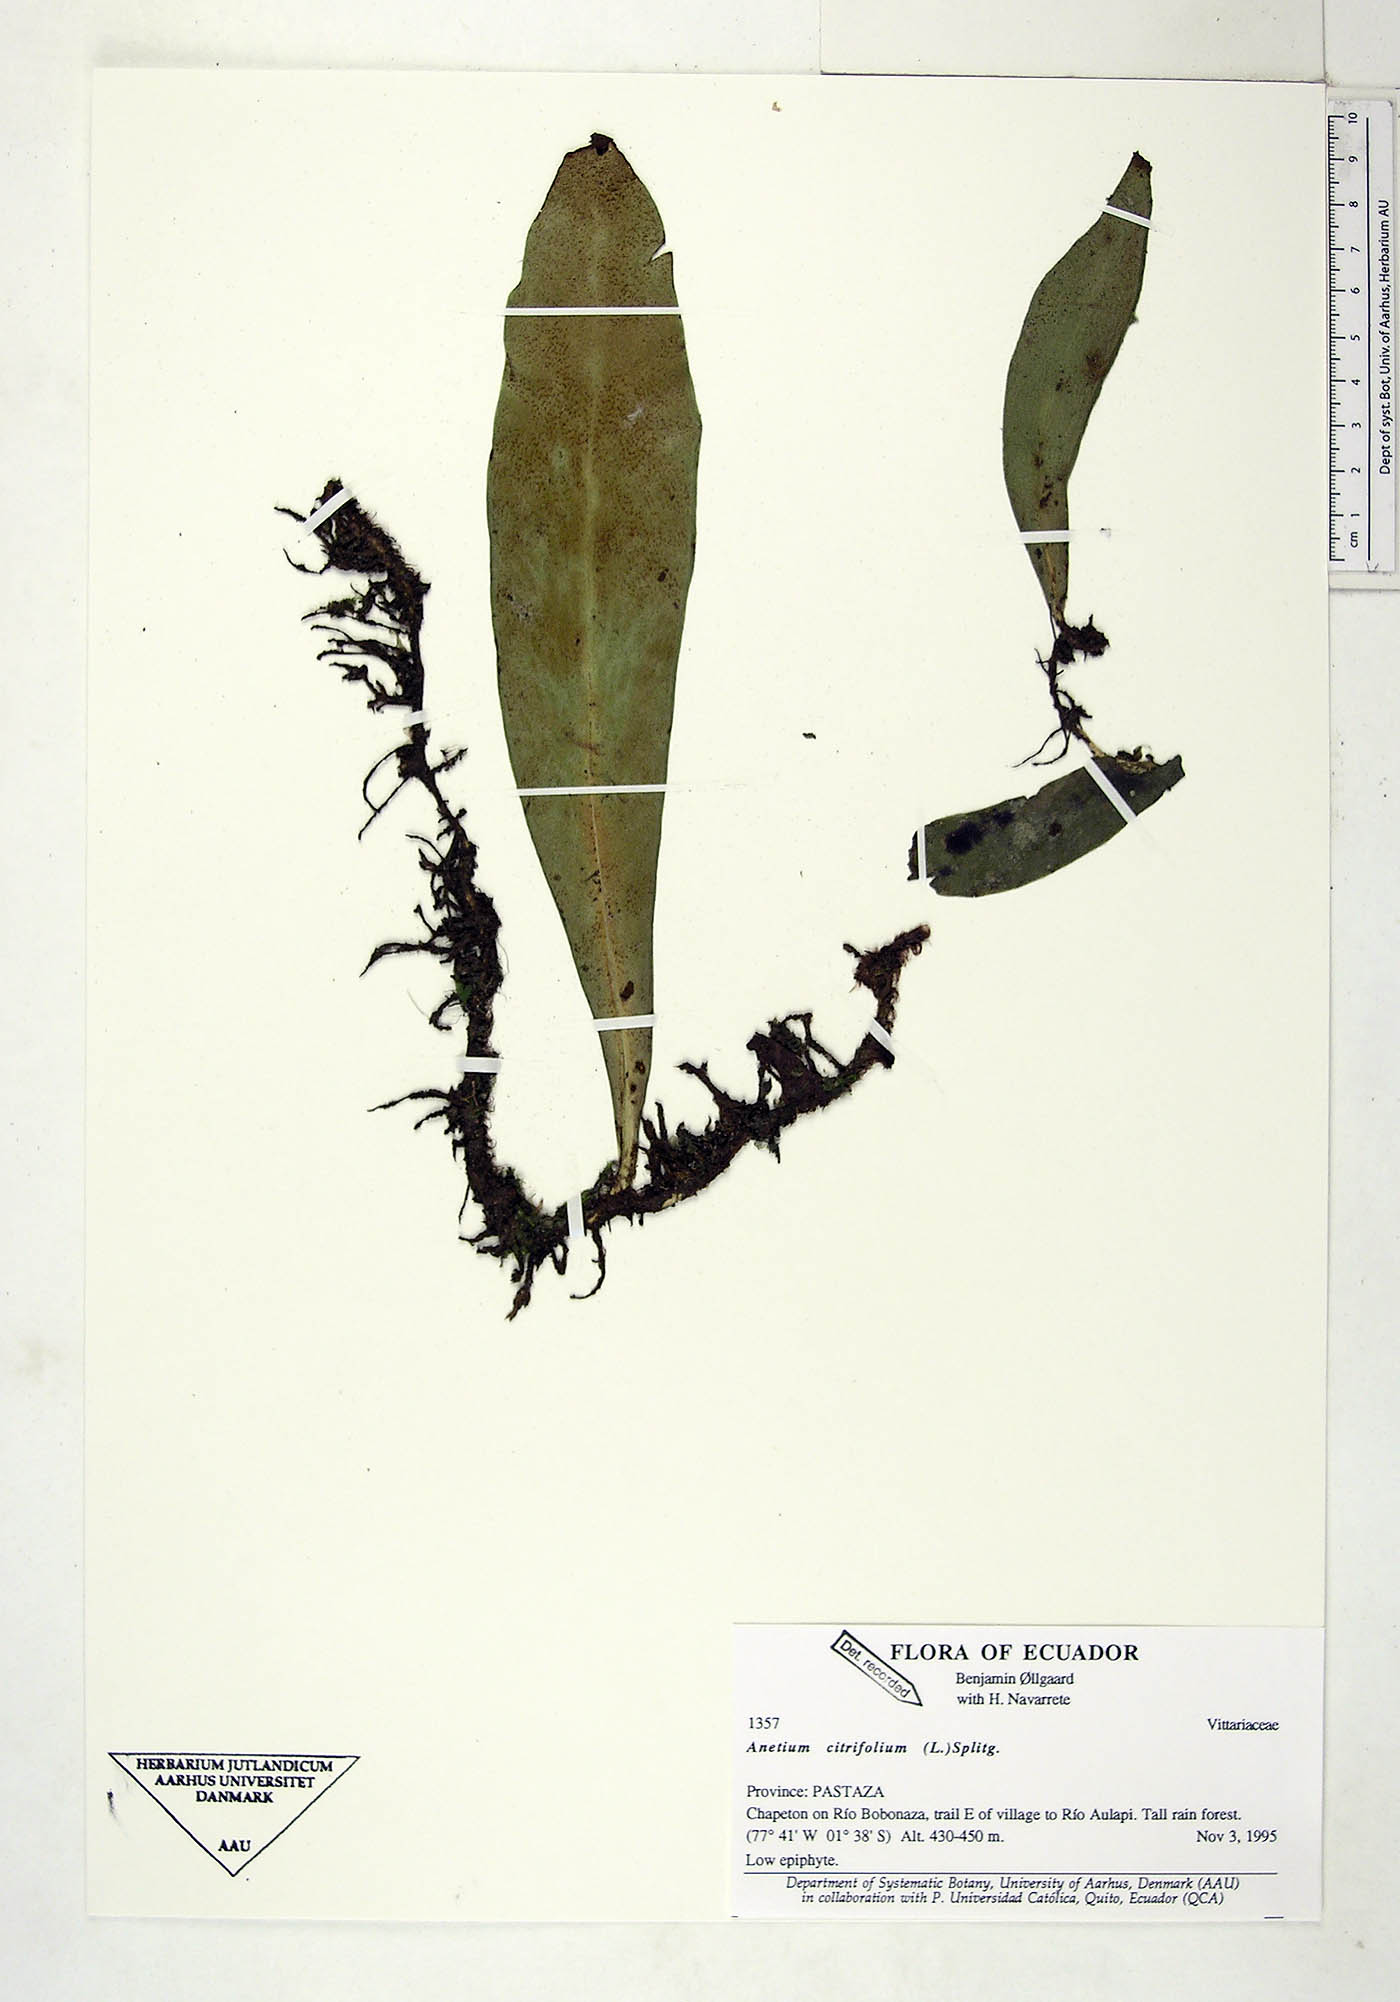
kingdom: Plantae
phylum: Tracheophyta
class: Polypodiopsida
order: Polypodiales
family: Pteridaceae
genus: Polytaenium
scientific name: Polytaenium citrifolium
